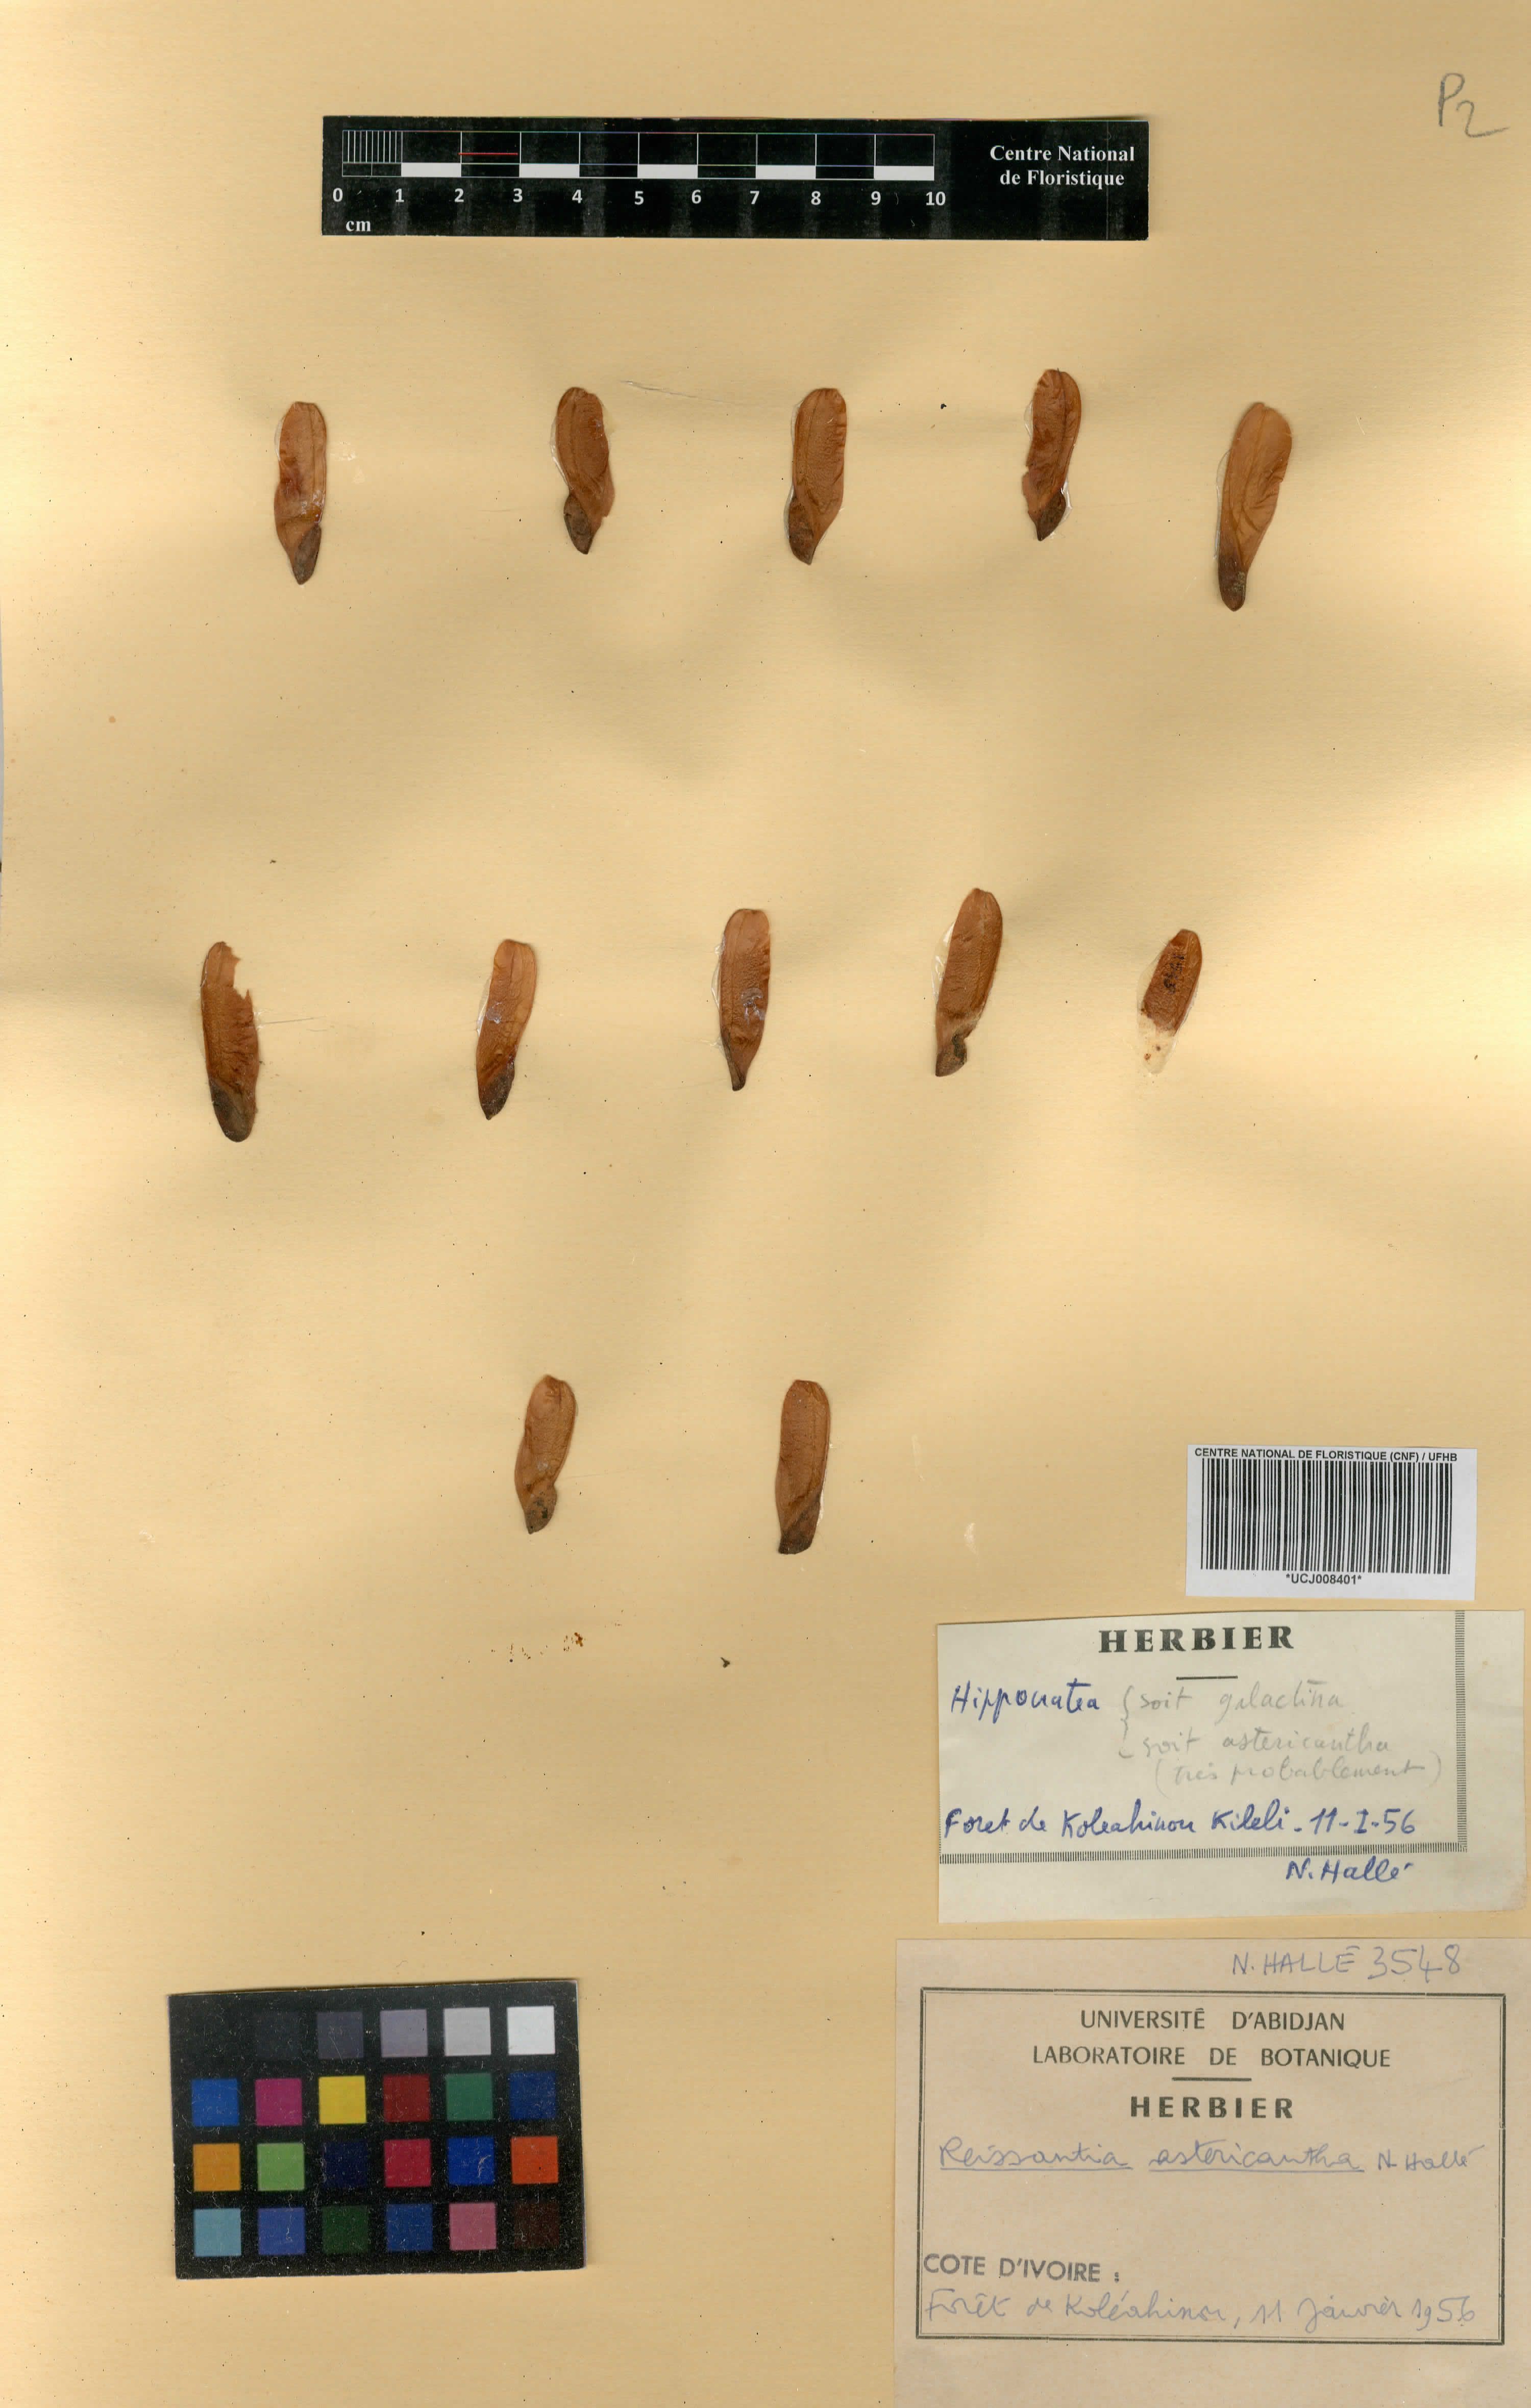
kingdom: Plantae
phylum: Tracheophyta
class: Magnoliopsida
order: Celastrales
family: Celastraceae
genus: Reissantia
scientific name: Reissantia indica
